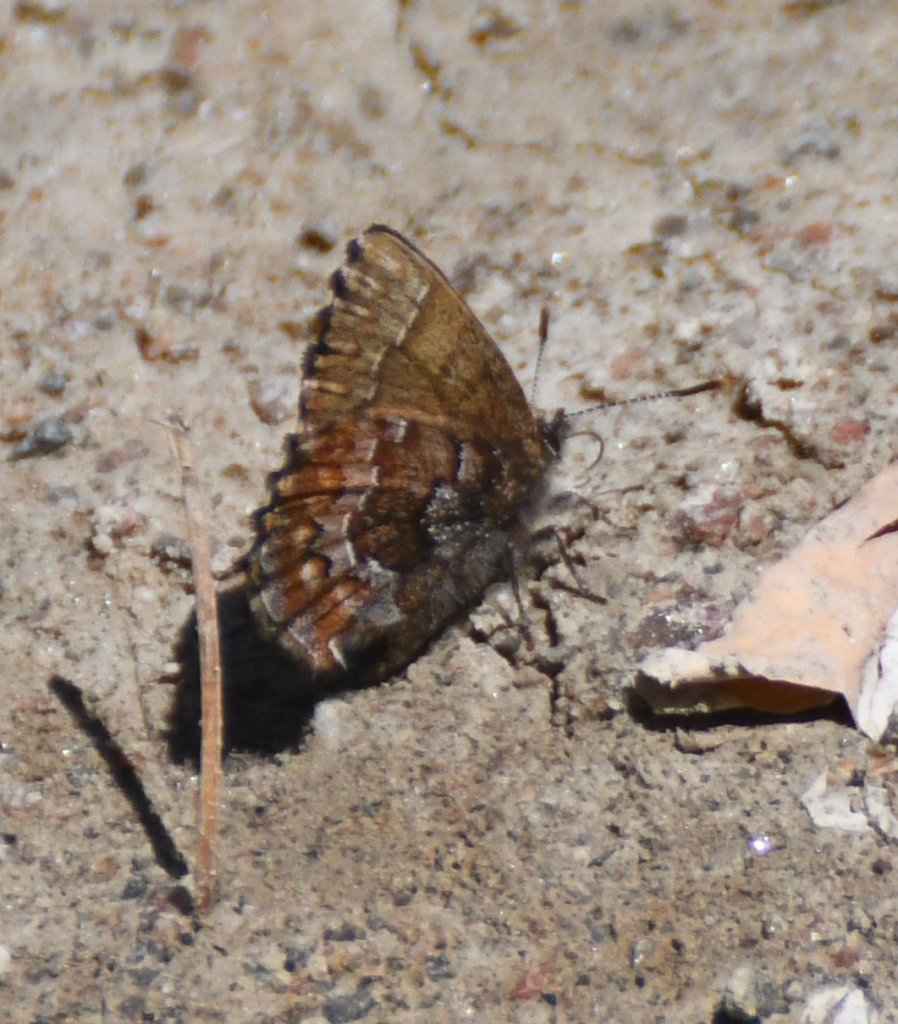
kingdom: Animalia
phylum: Arthropoda
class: Insecta
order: Lepidoptera
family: Lycaenidae
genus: Incisalia
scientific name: Incisalia niphon
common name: Eastern Pine Elfin
